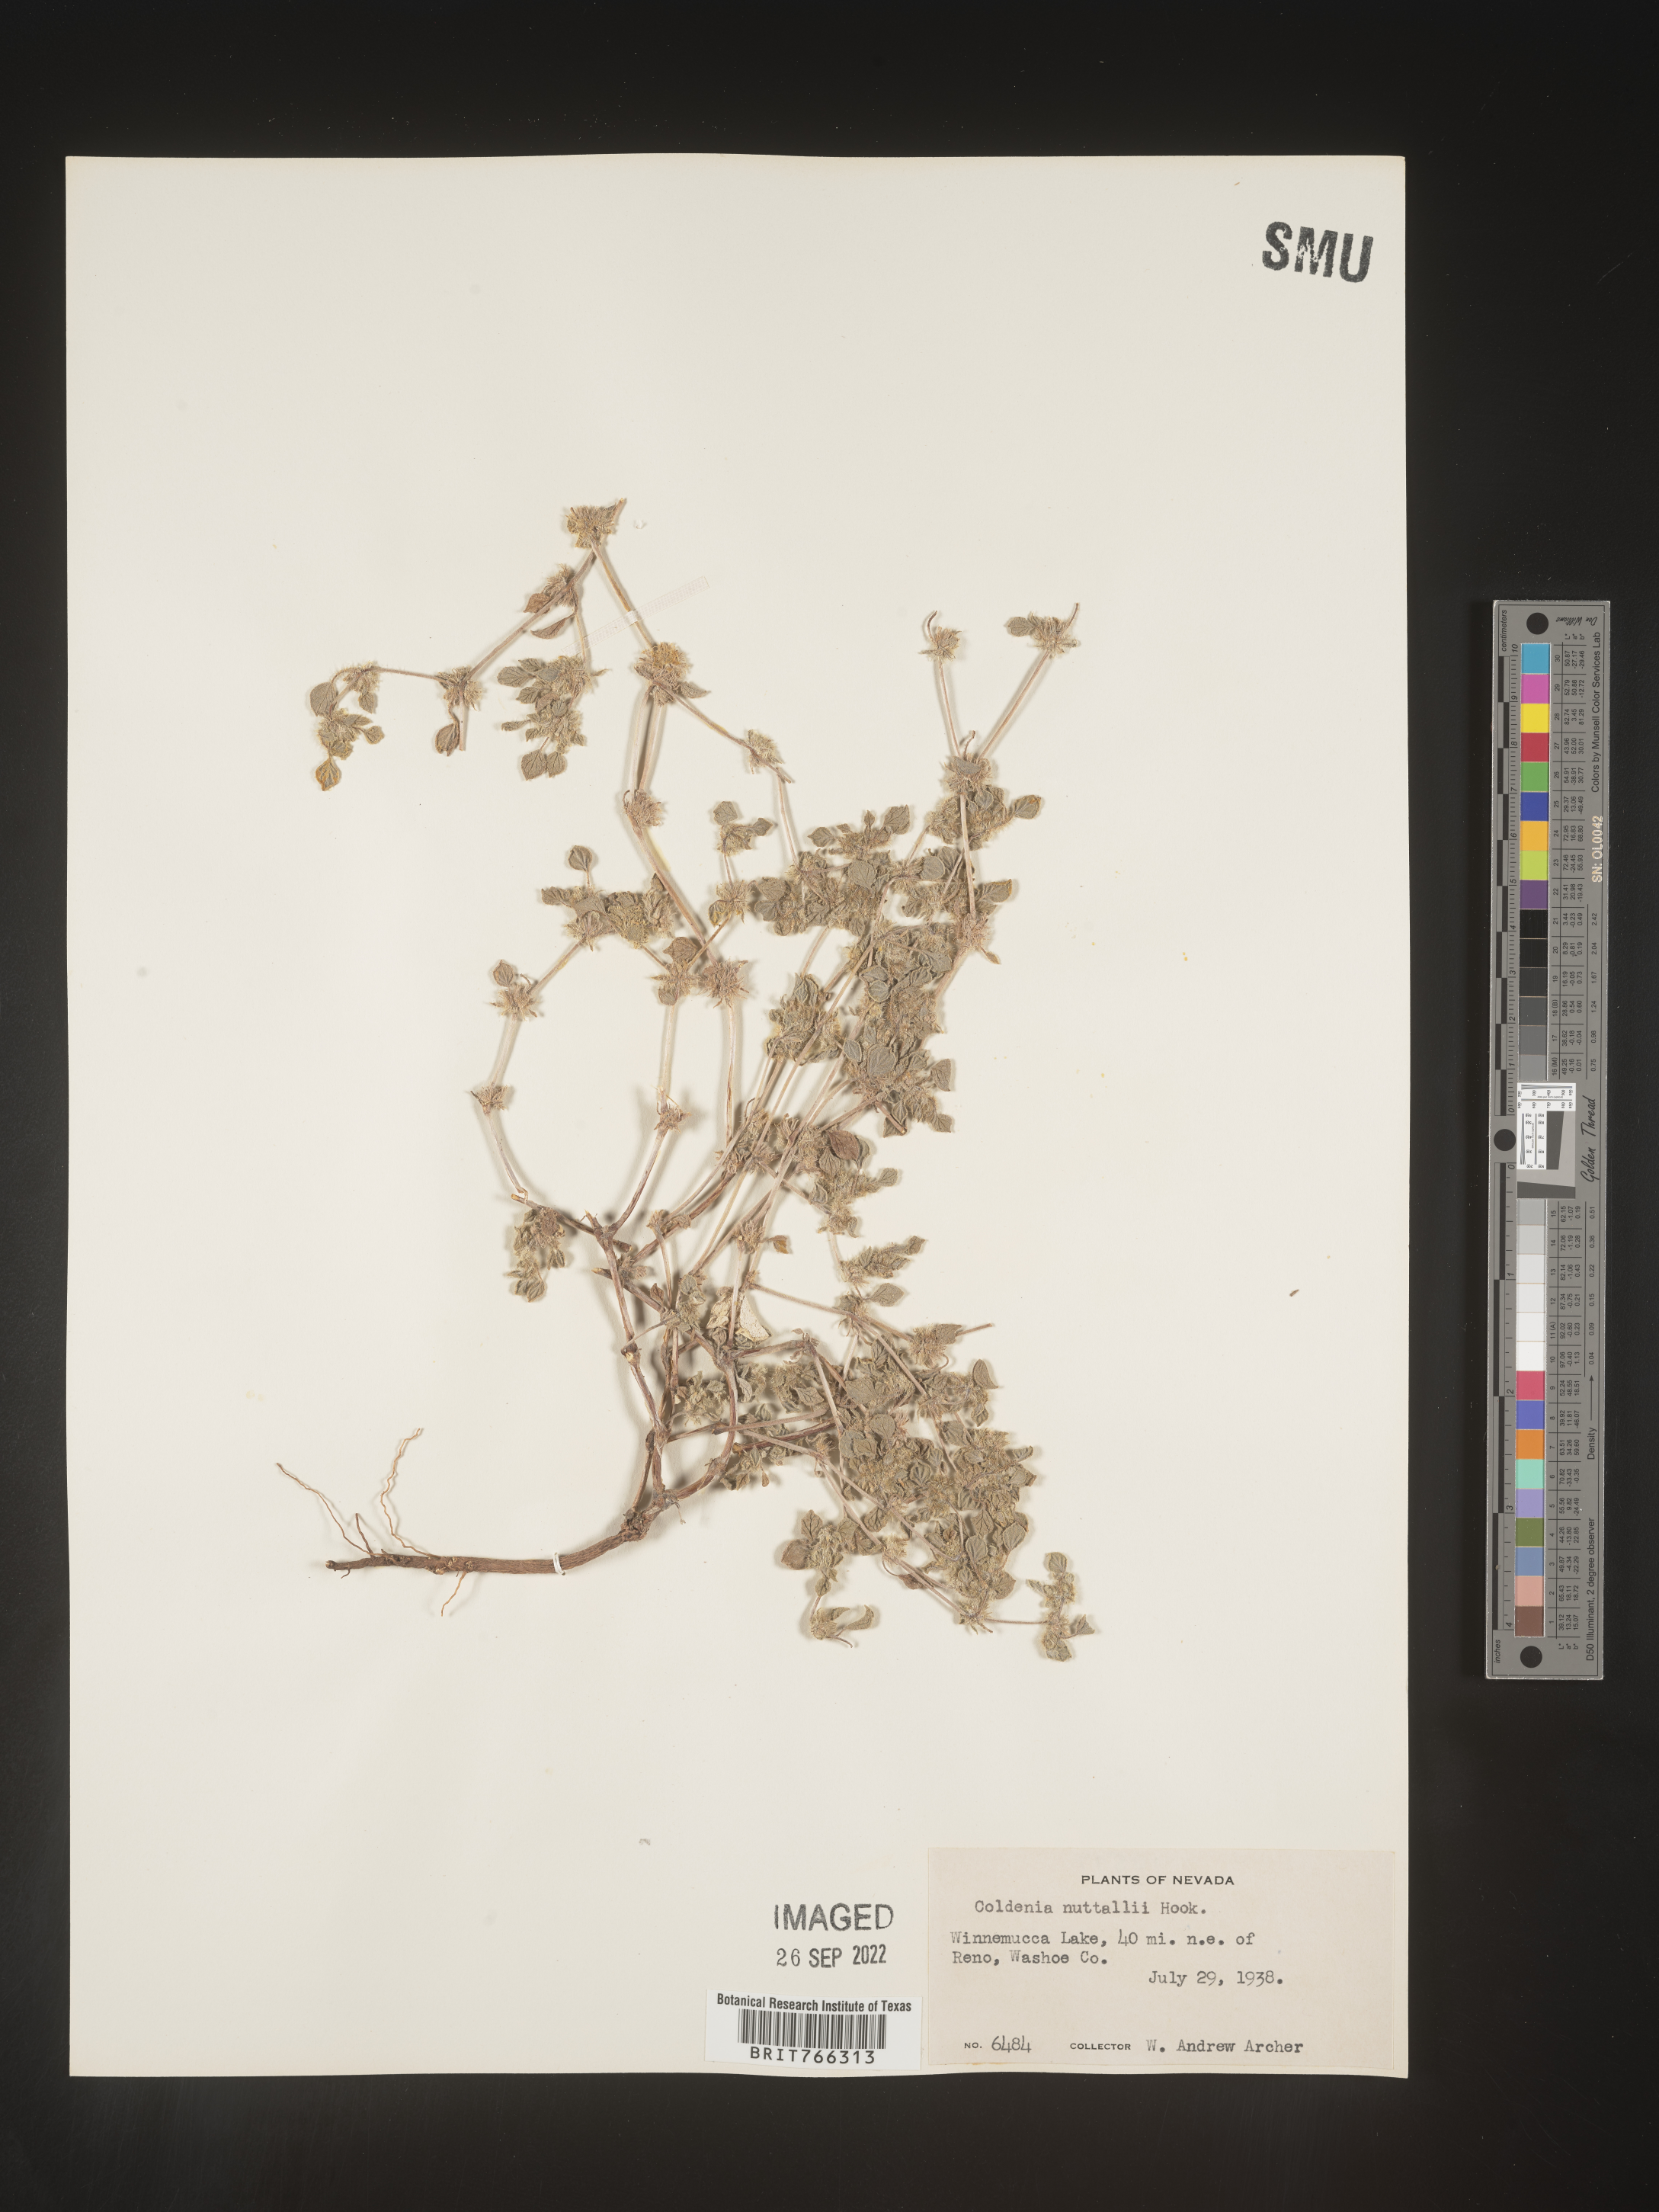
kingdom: Plantae
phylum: Tracheophyta
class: Magnoliopsida
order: Boraginales
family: Coldeniaceae
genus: Coldenia
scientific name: Coldenia
